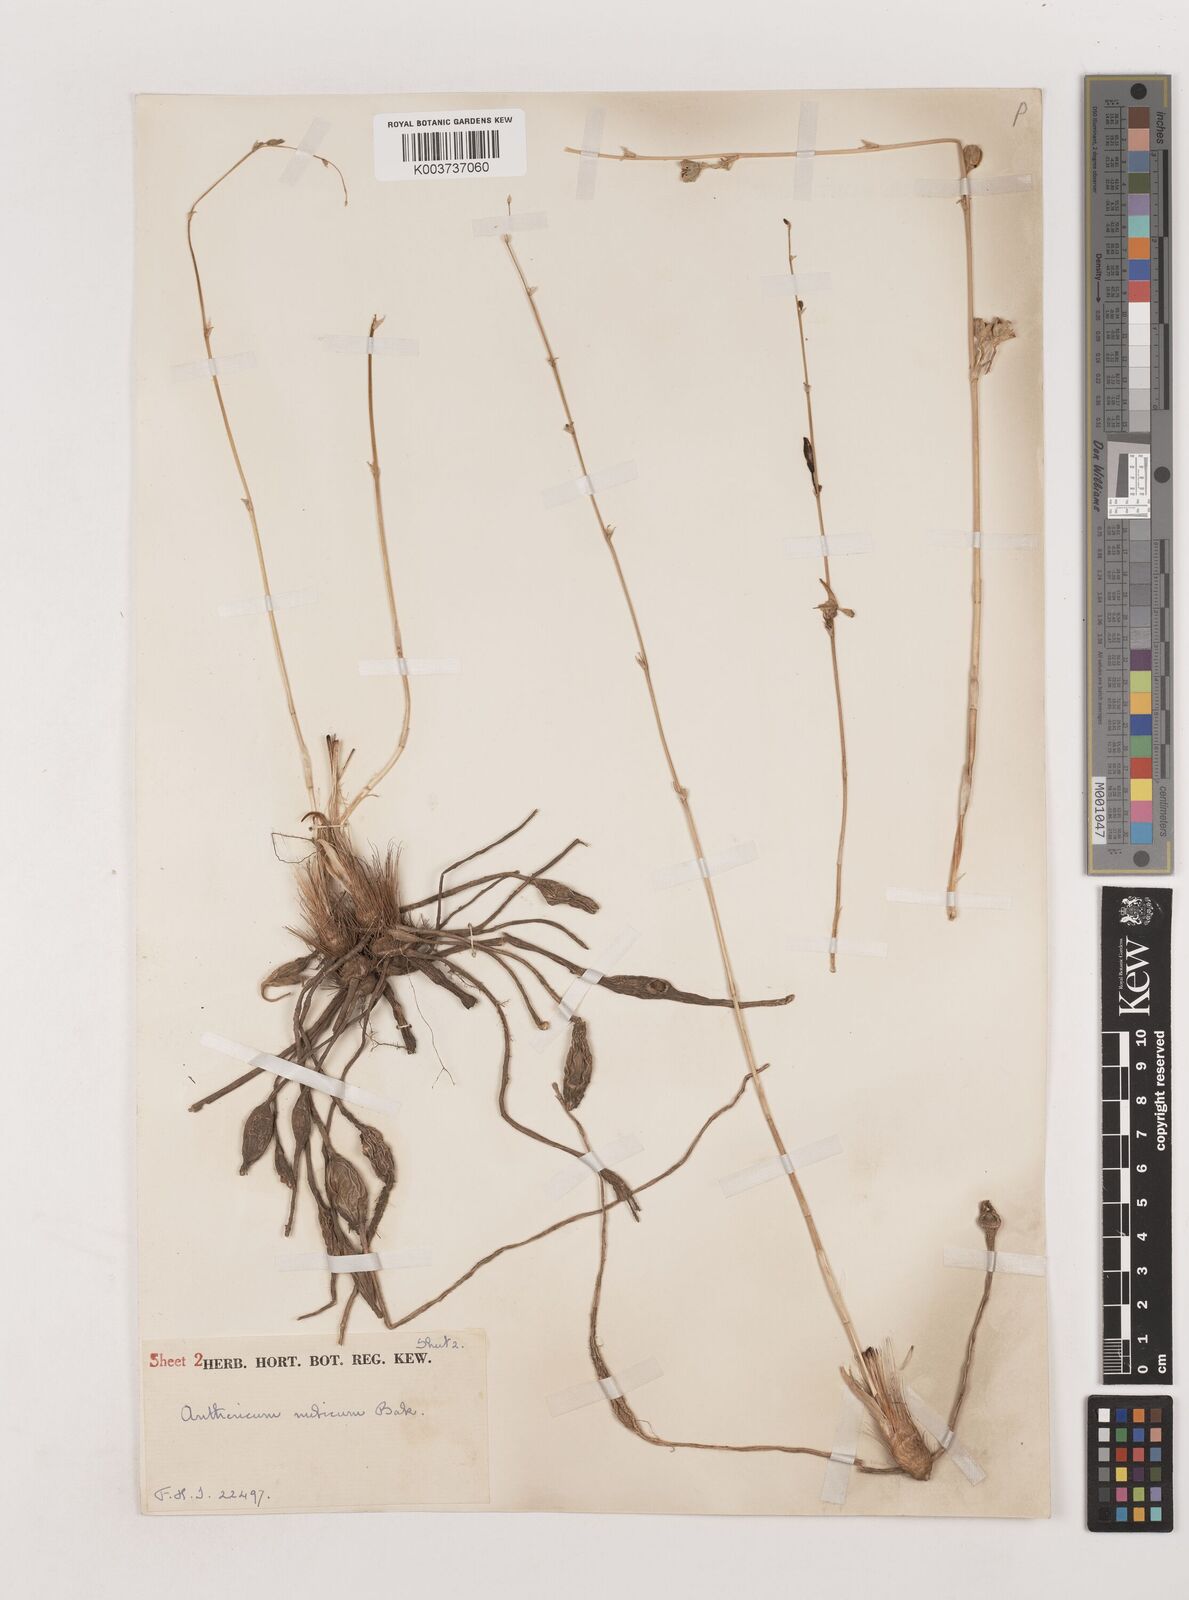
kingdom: Plantae
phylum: Tracheophyta
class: Liliopsida
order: Asparagales
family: Asparagaceae
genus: Chlorophytum
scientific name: Chlorophytum nubicum
